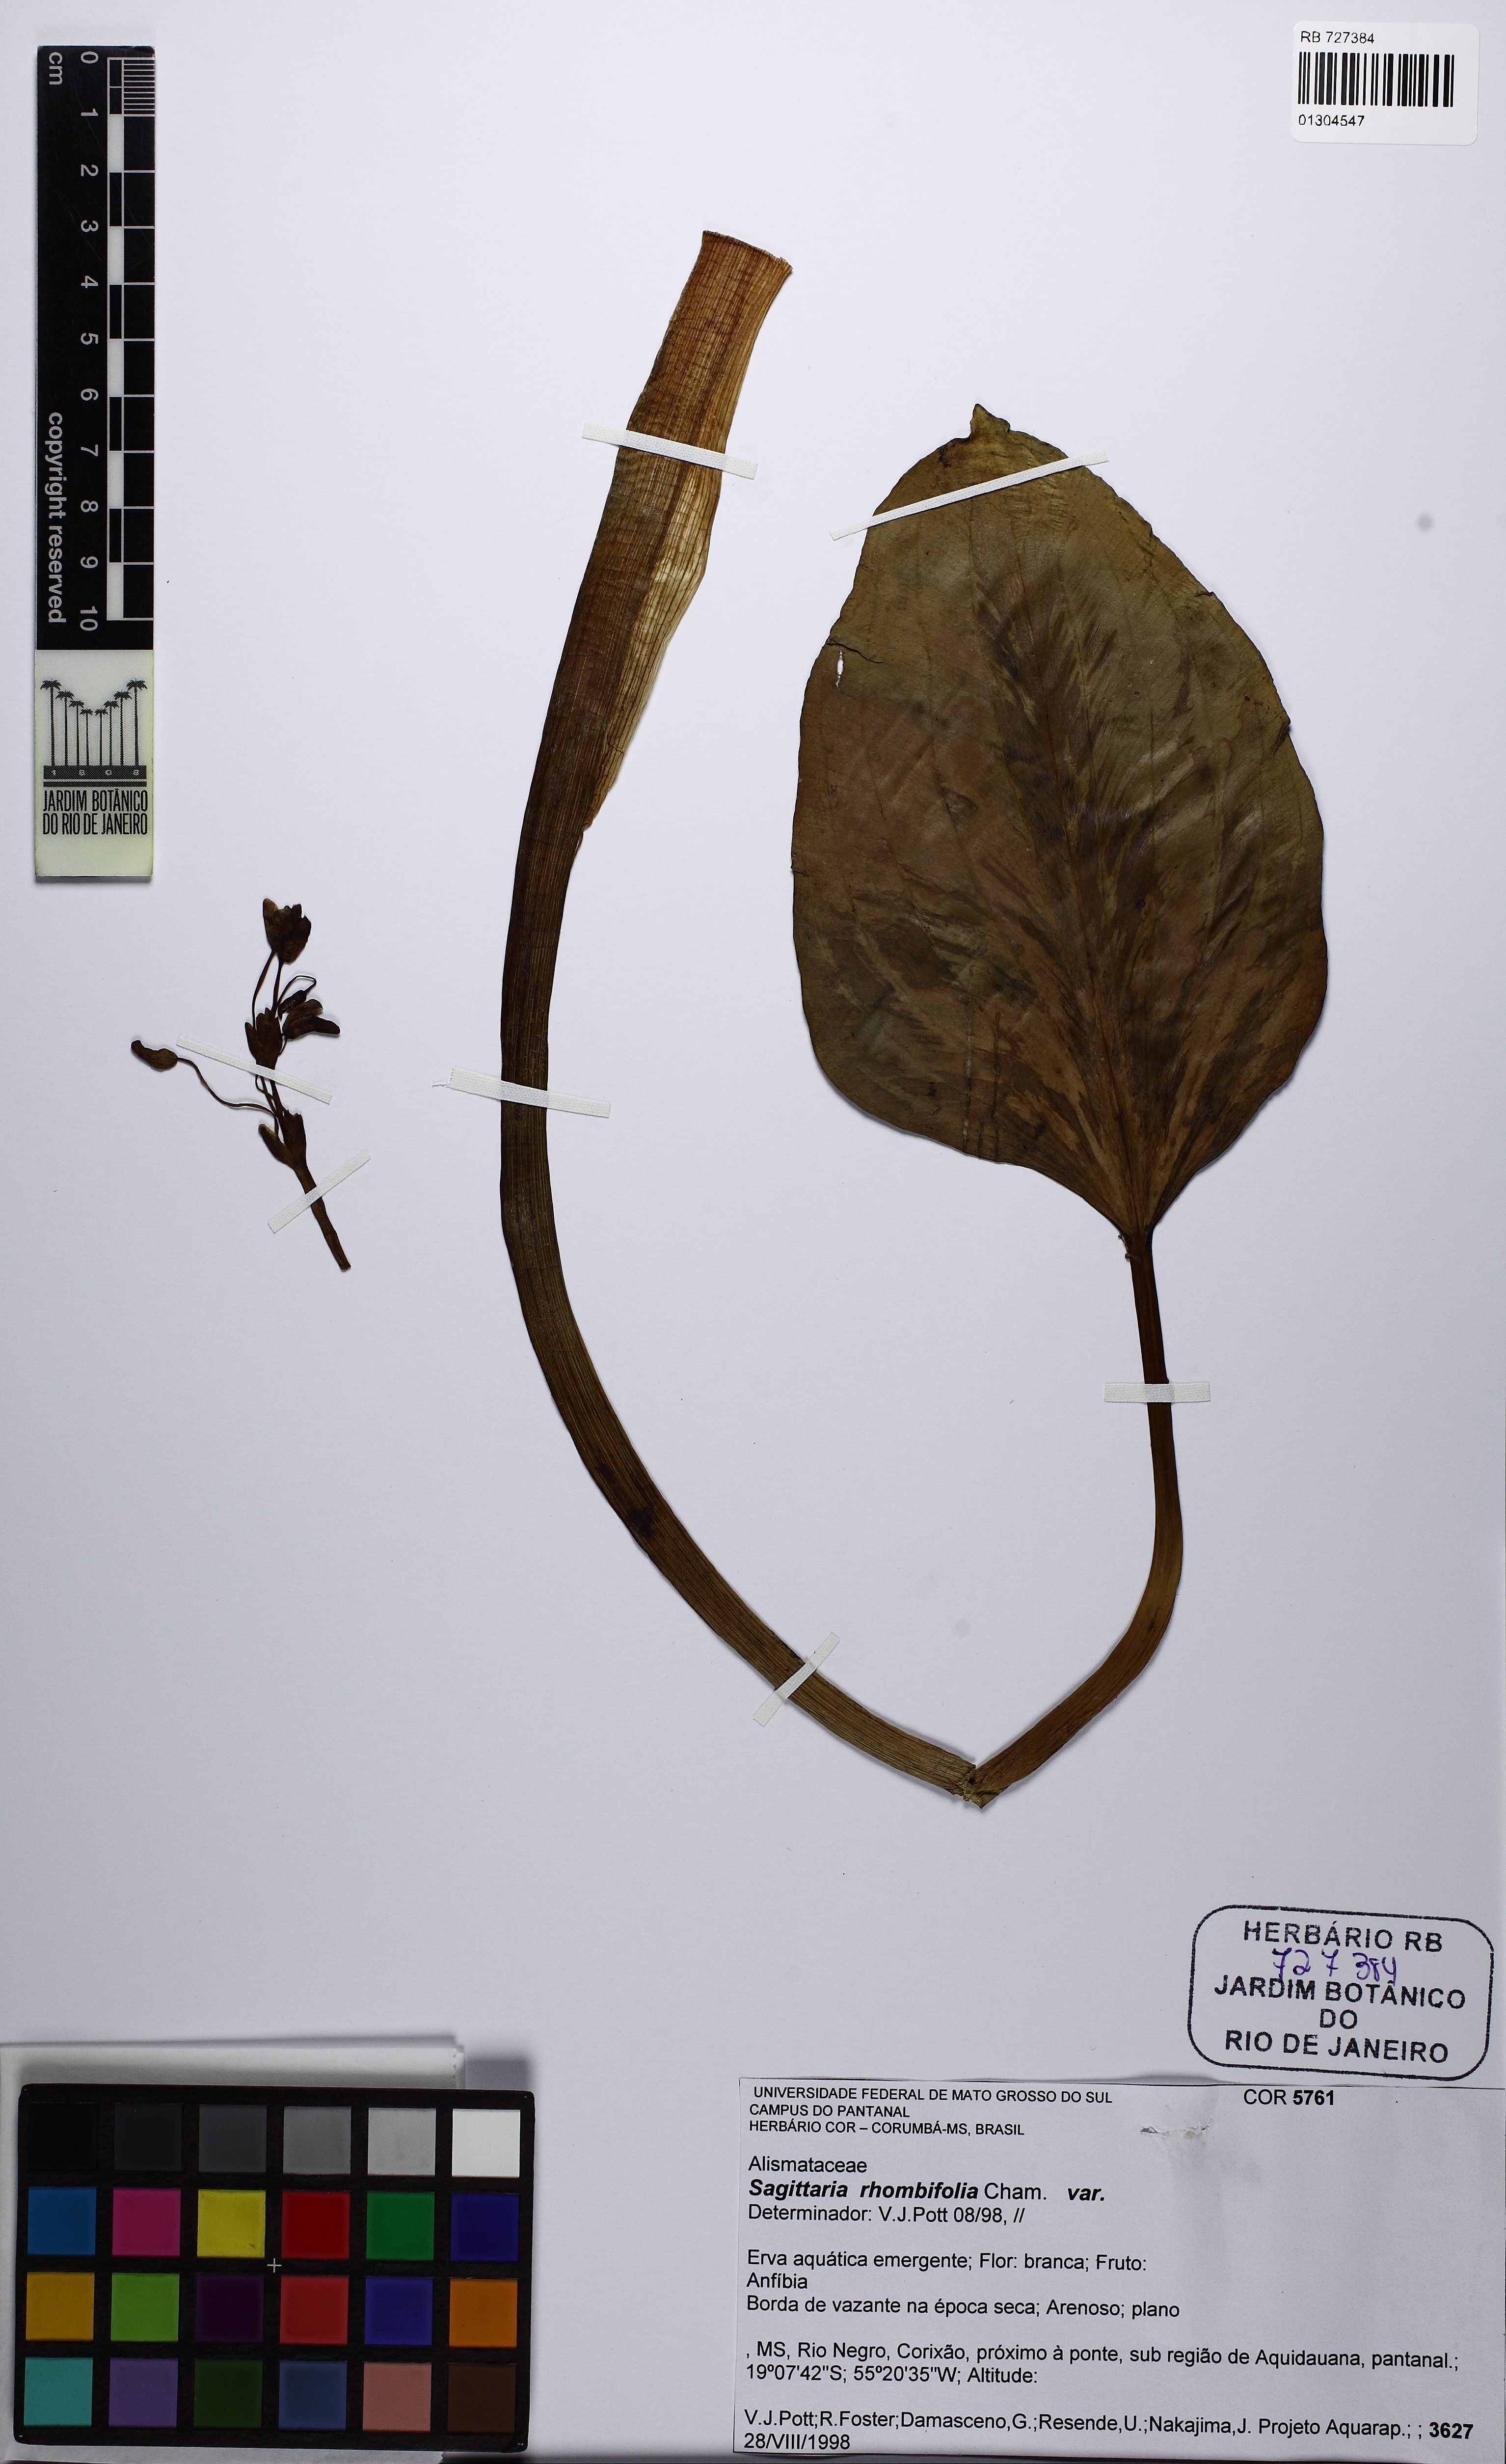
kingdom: Plantae
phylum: Tracheophyta
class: Liliopsida
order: Alismatales
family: Alismataceae
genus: Sagittaria
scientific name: Sagittaria rhombifolia
